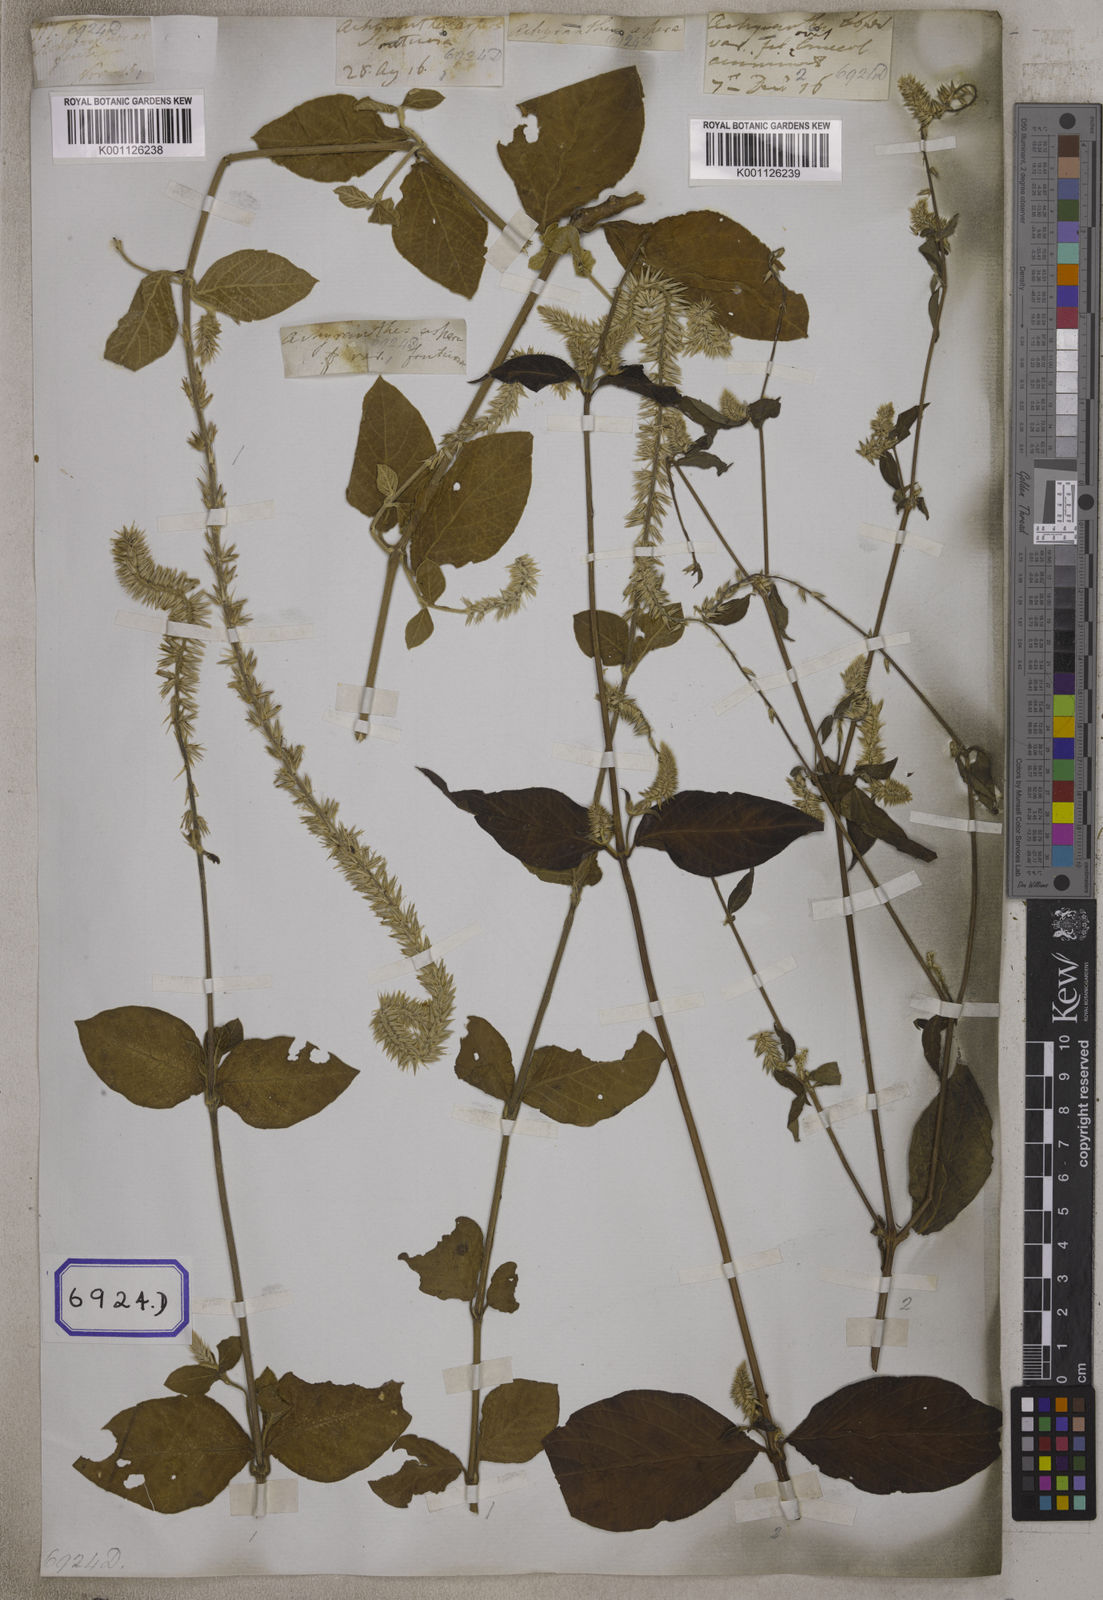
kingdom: Plantae
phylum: Tracheophyta
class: Magnoliopsida
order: Caryophyllales
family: Amaranthaceae
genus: Achyranthes
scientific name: Achyranthes
